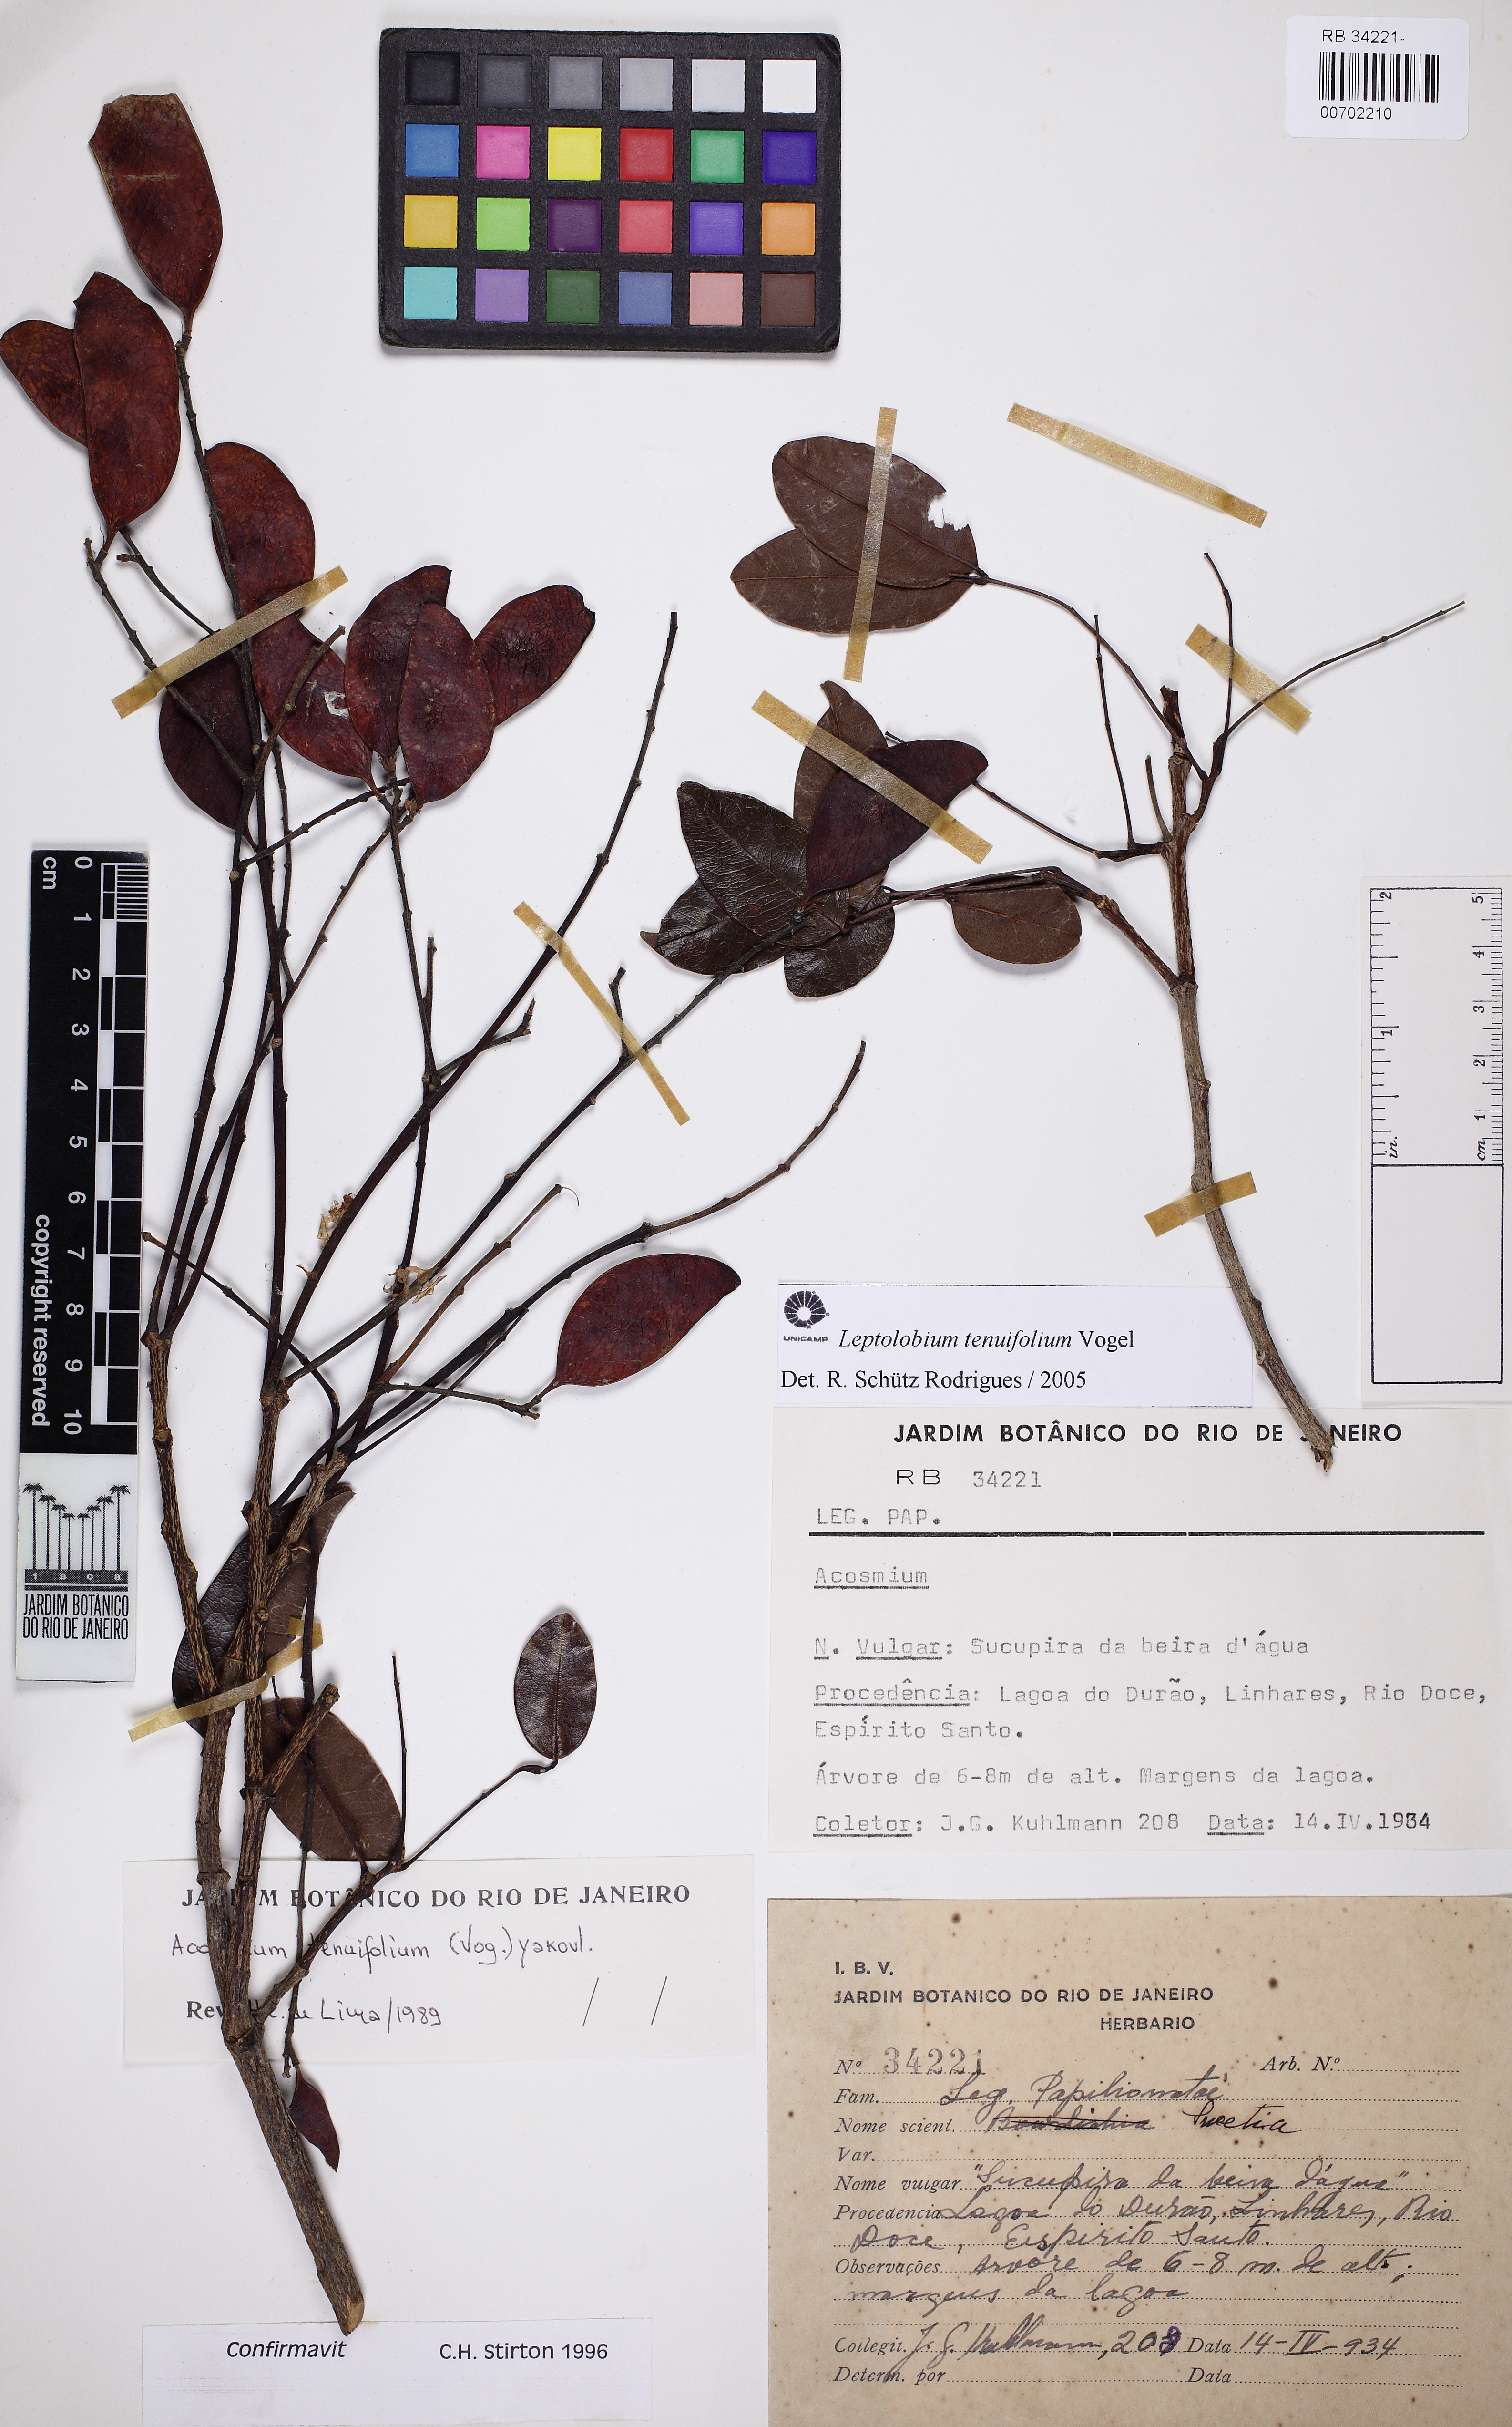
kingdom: Plantae
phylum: Tracheophyta
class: Magnoliopsida
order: Fabales
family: Fabaceae
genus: Leptolobium
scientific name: Leptolobium tenuifolium
